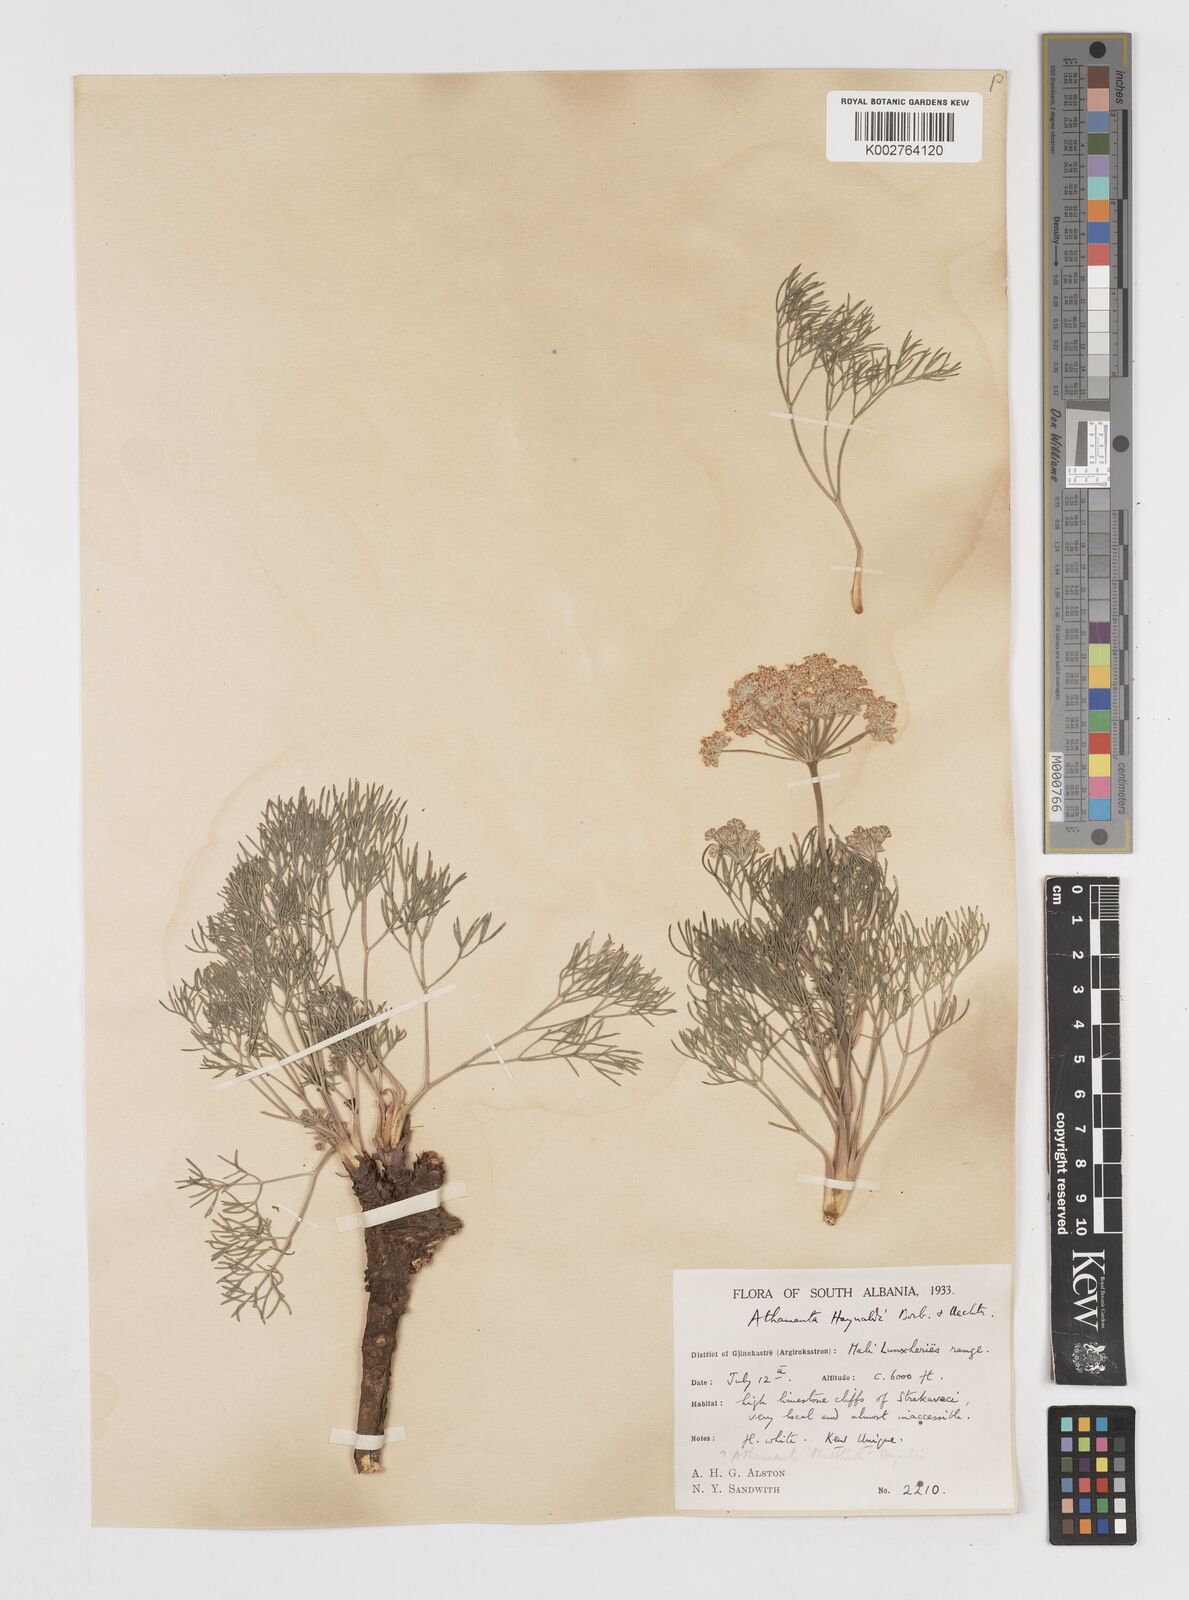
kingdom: Plantae
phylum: Tracheophyta
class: Magnoliopsida
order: Apiales
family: Apiaceae
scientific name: Apiaceae
